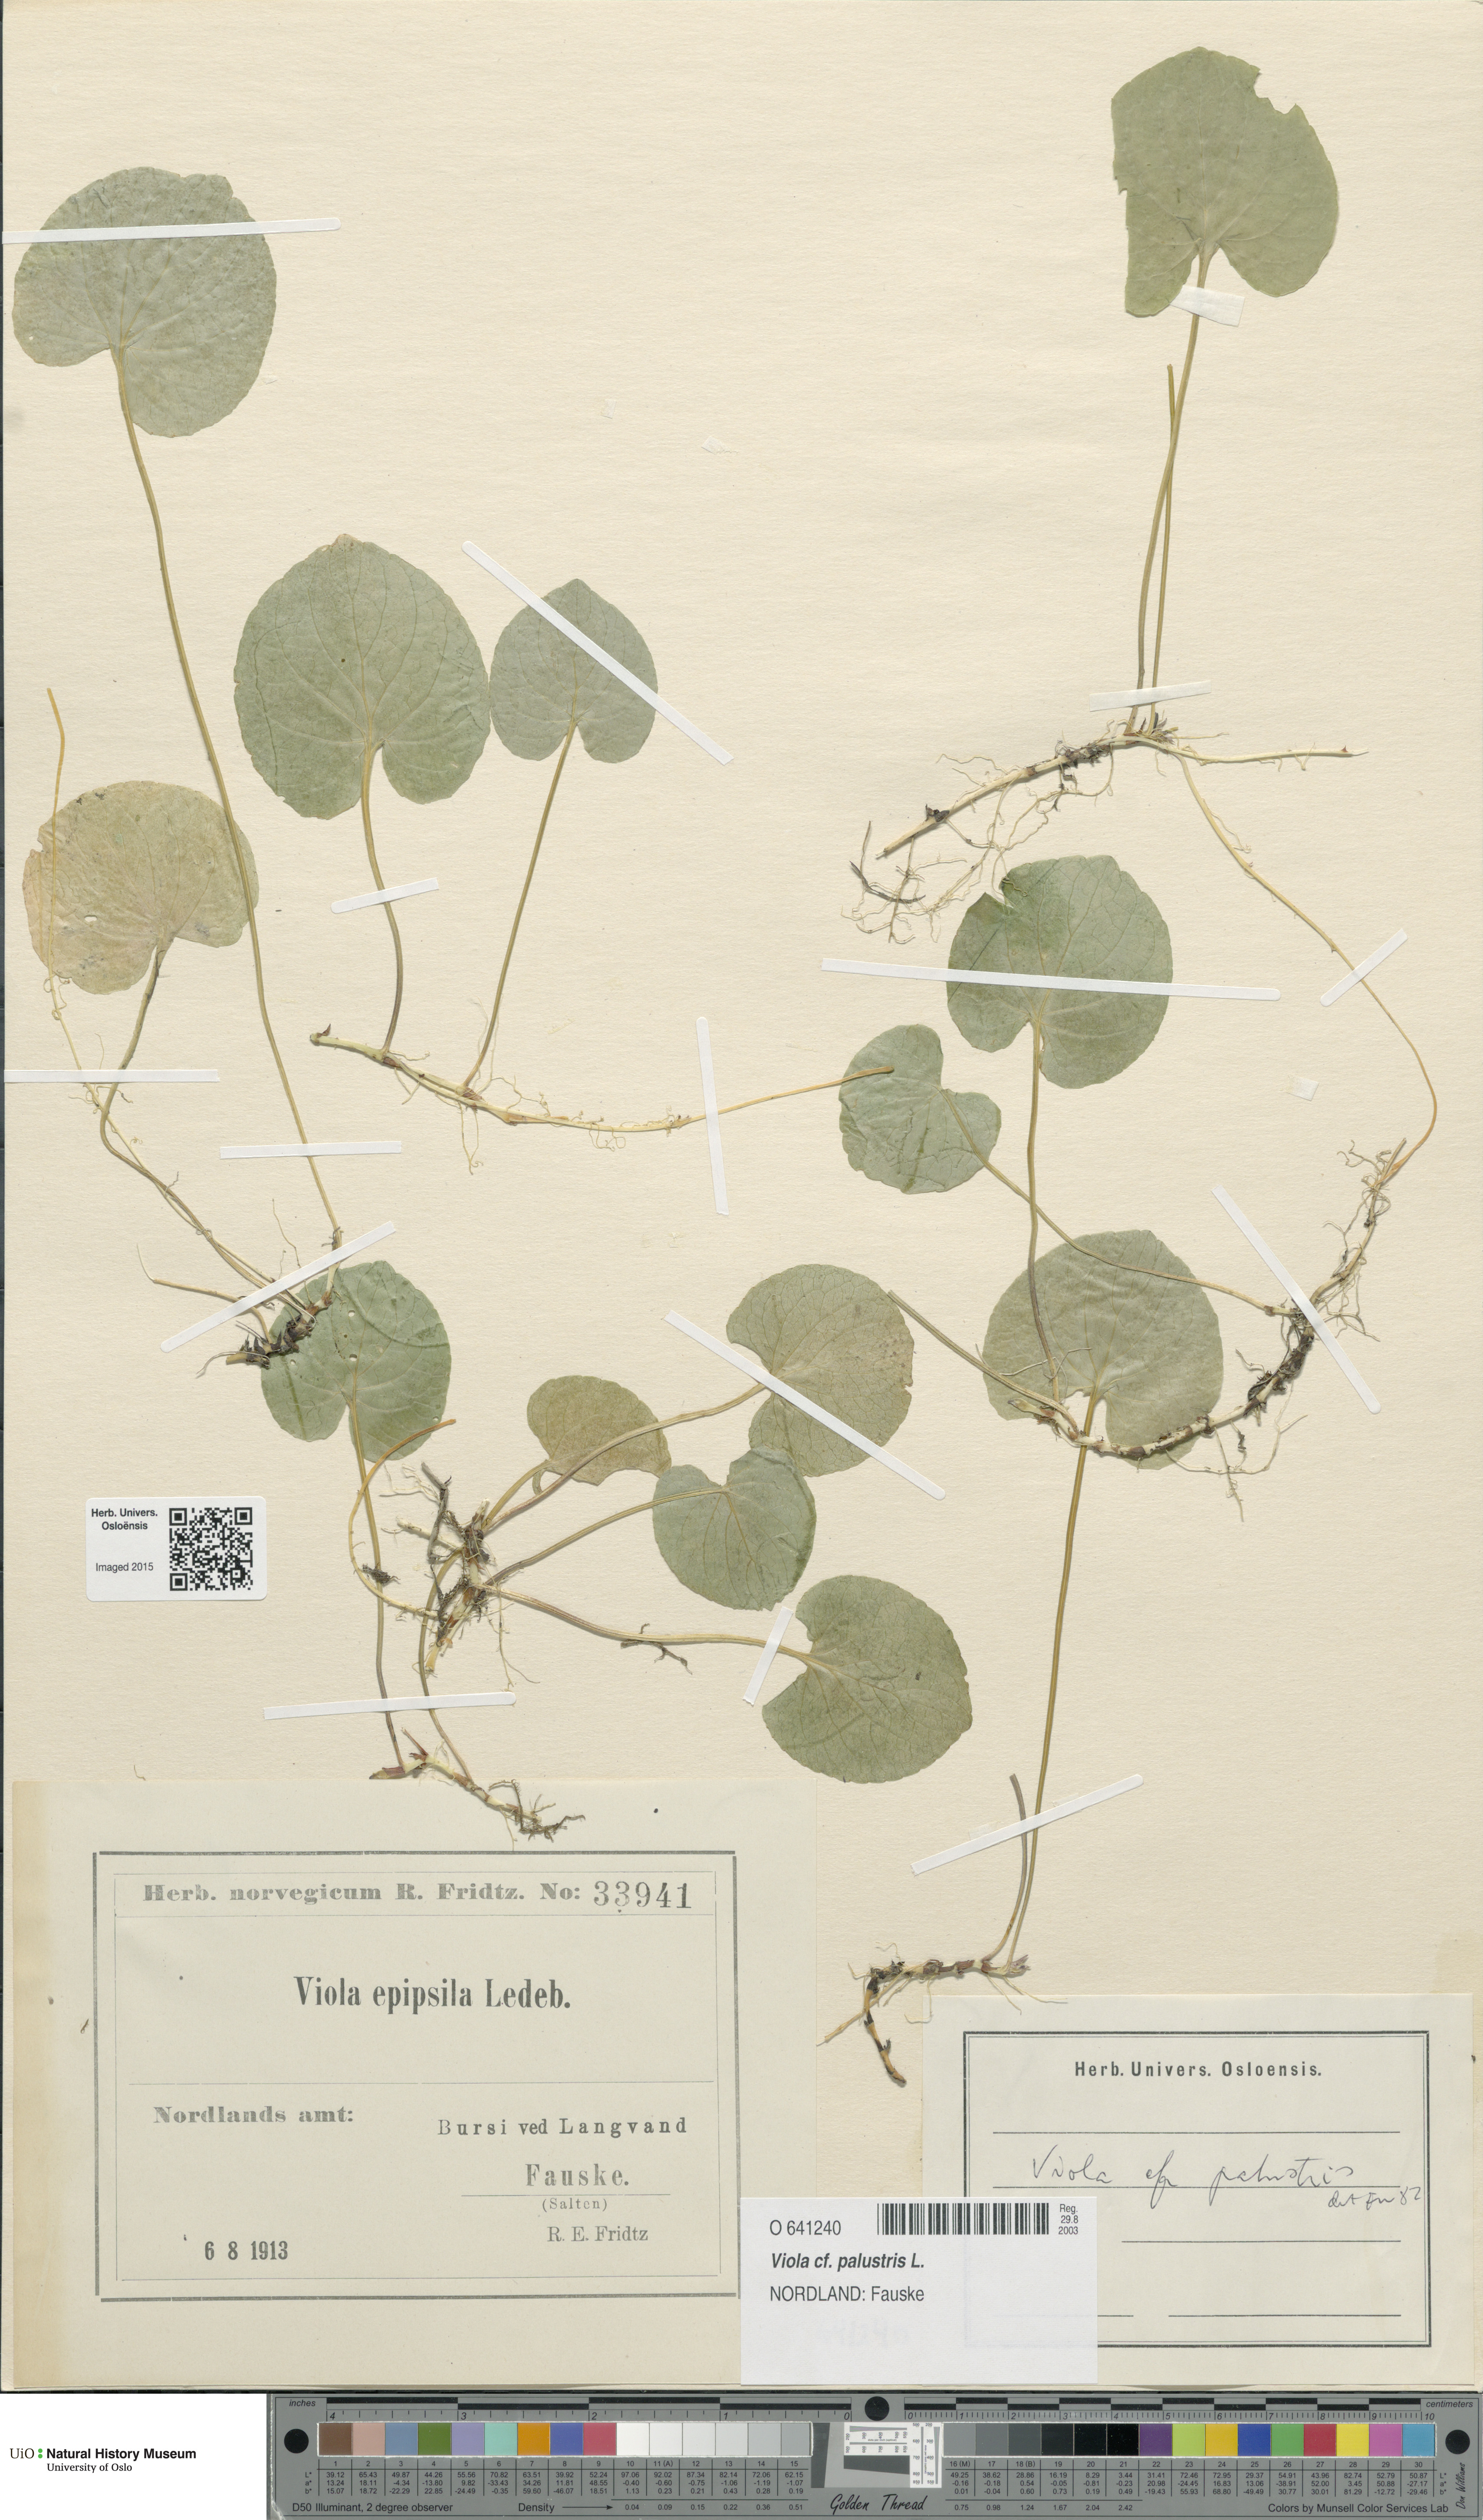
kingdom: Plantae
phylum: Tracheophyta
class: Magnoliopsida
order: Malpighiales
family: Violaceae
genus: Viola
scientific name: Viola palustris
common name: Marsh violet
